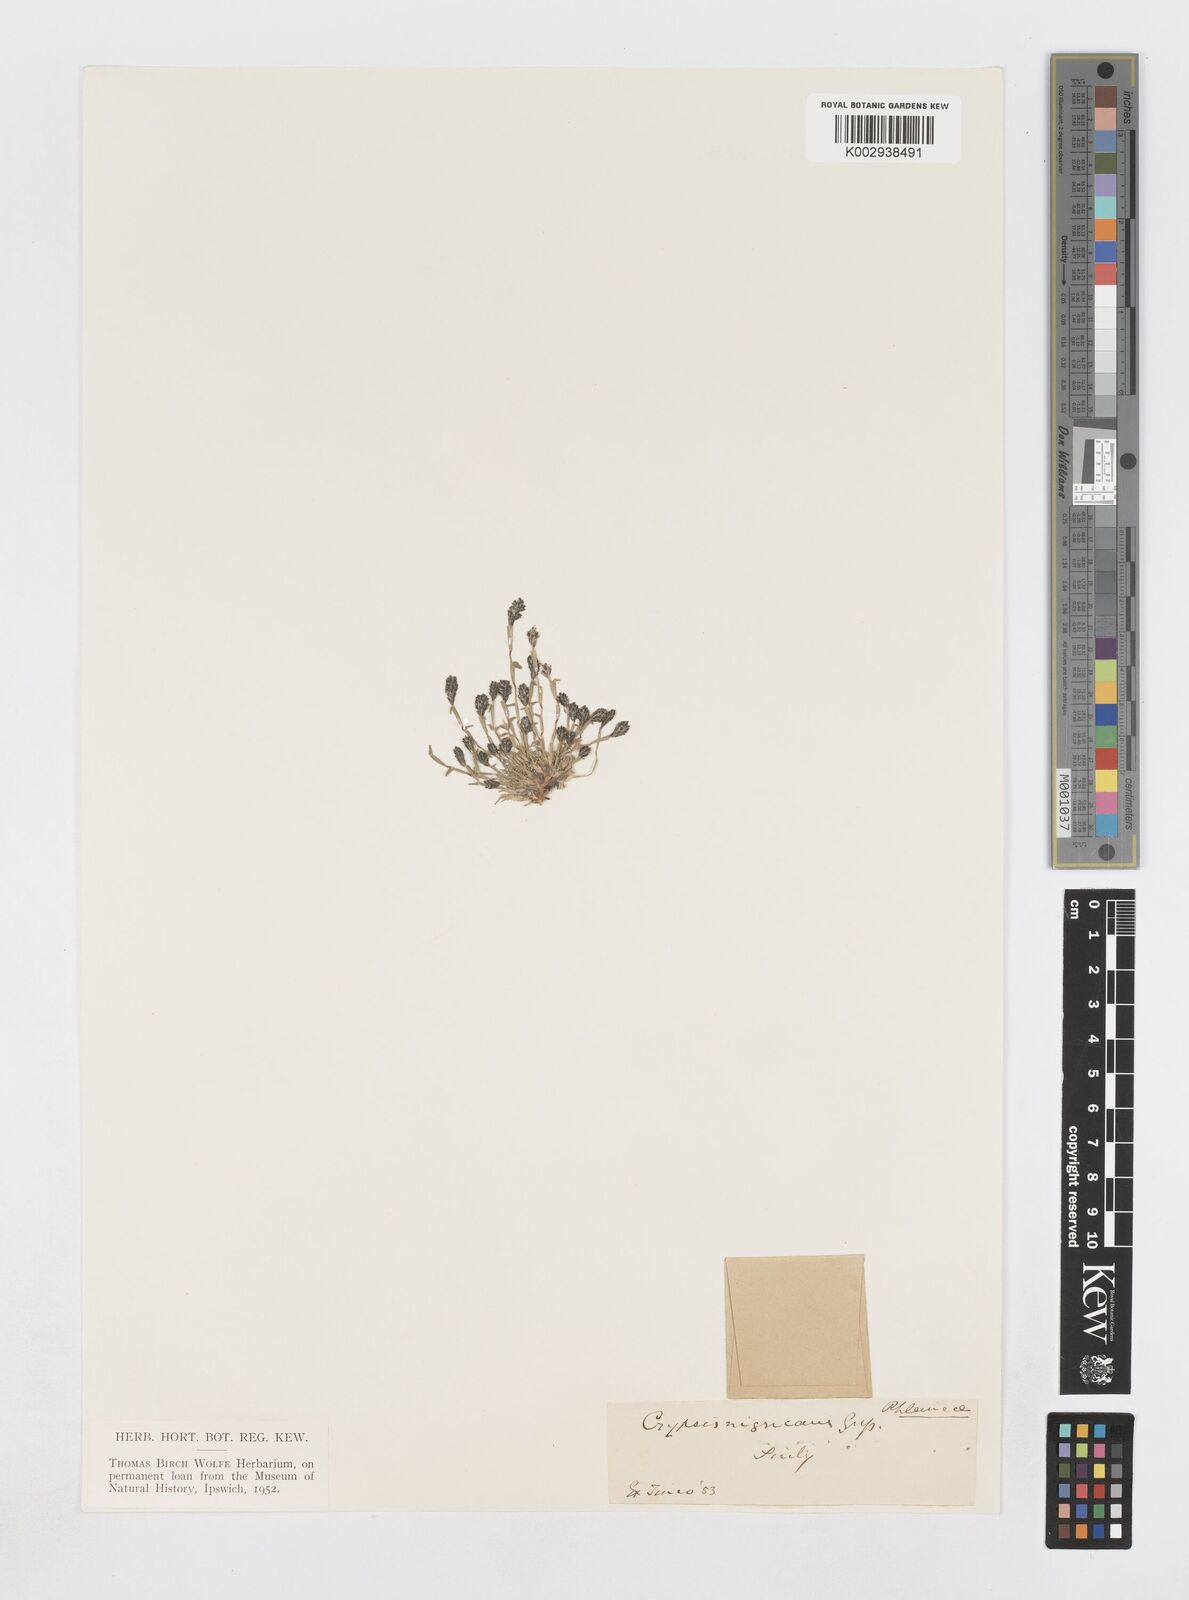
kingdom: Plantae
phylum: Tracheophyta
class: Liliopsida
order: Poales
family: Poaceae
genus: Sporobolus
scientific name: Sporobolus alopecuroides
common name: Foxtail pricklegrass
